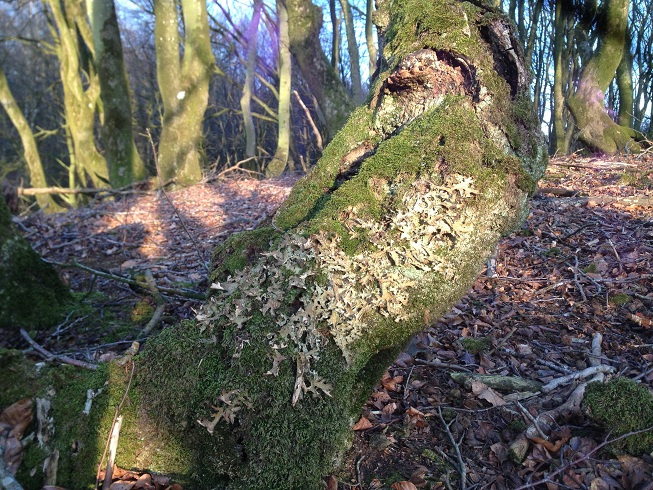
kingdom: Fungi
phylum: Ascomycota
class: Lecanoromycetes
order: Peltigerales
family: Lobariaceae
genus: Lobaria
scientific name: Lobaria pulmonaria
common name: almindelig lungelav
